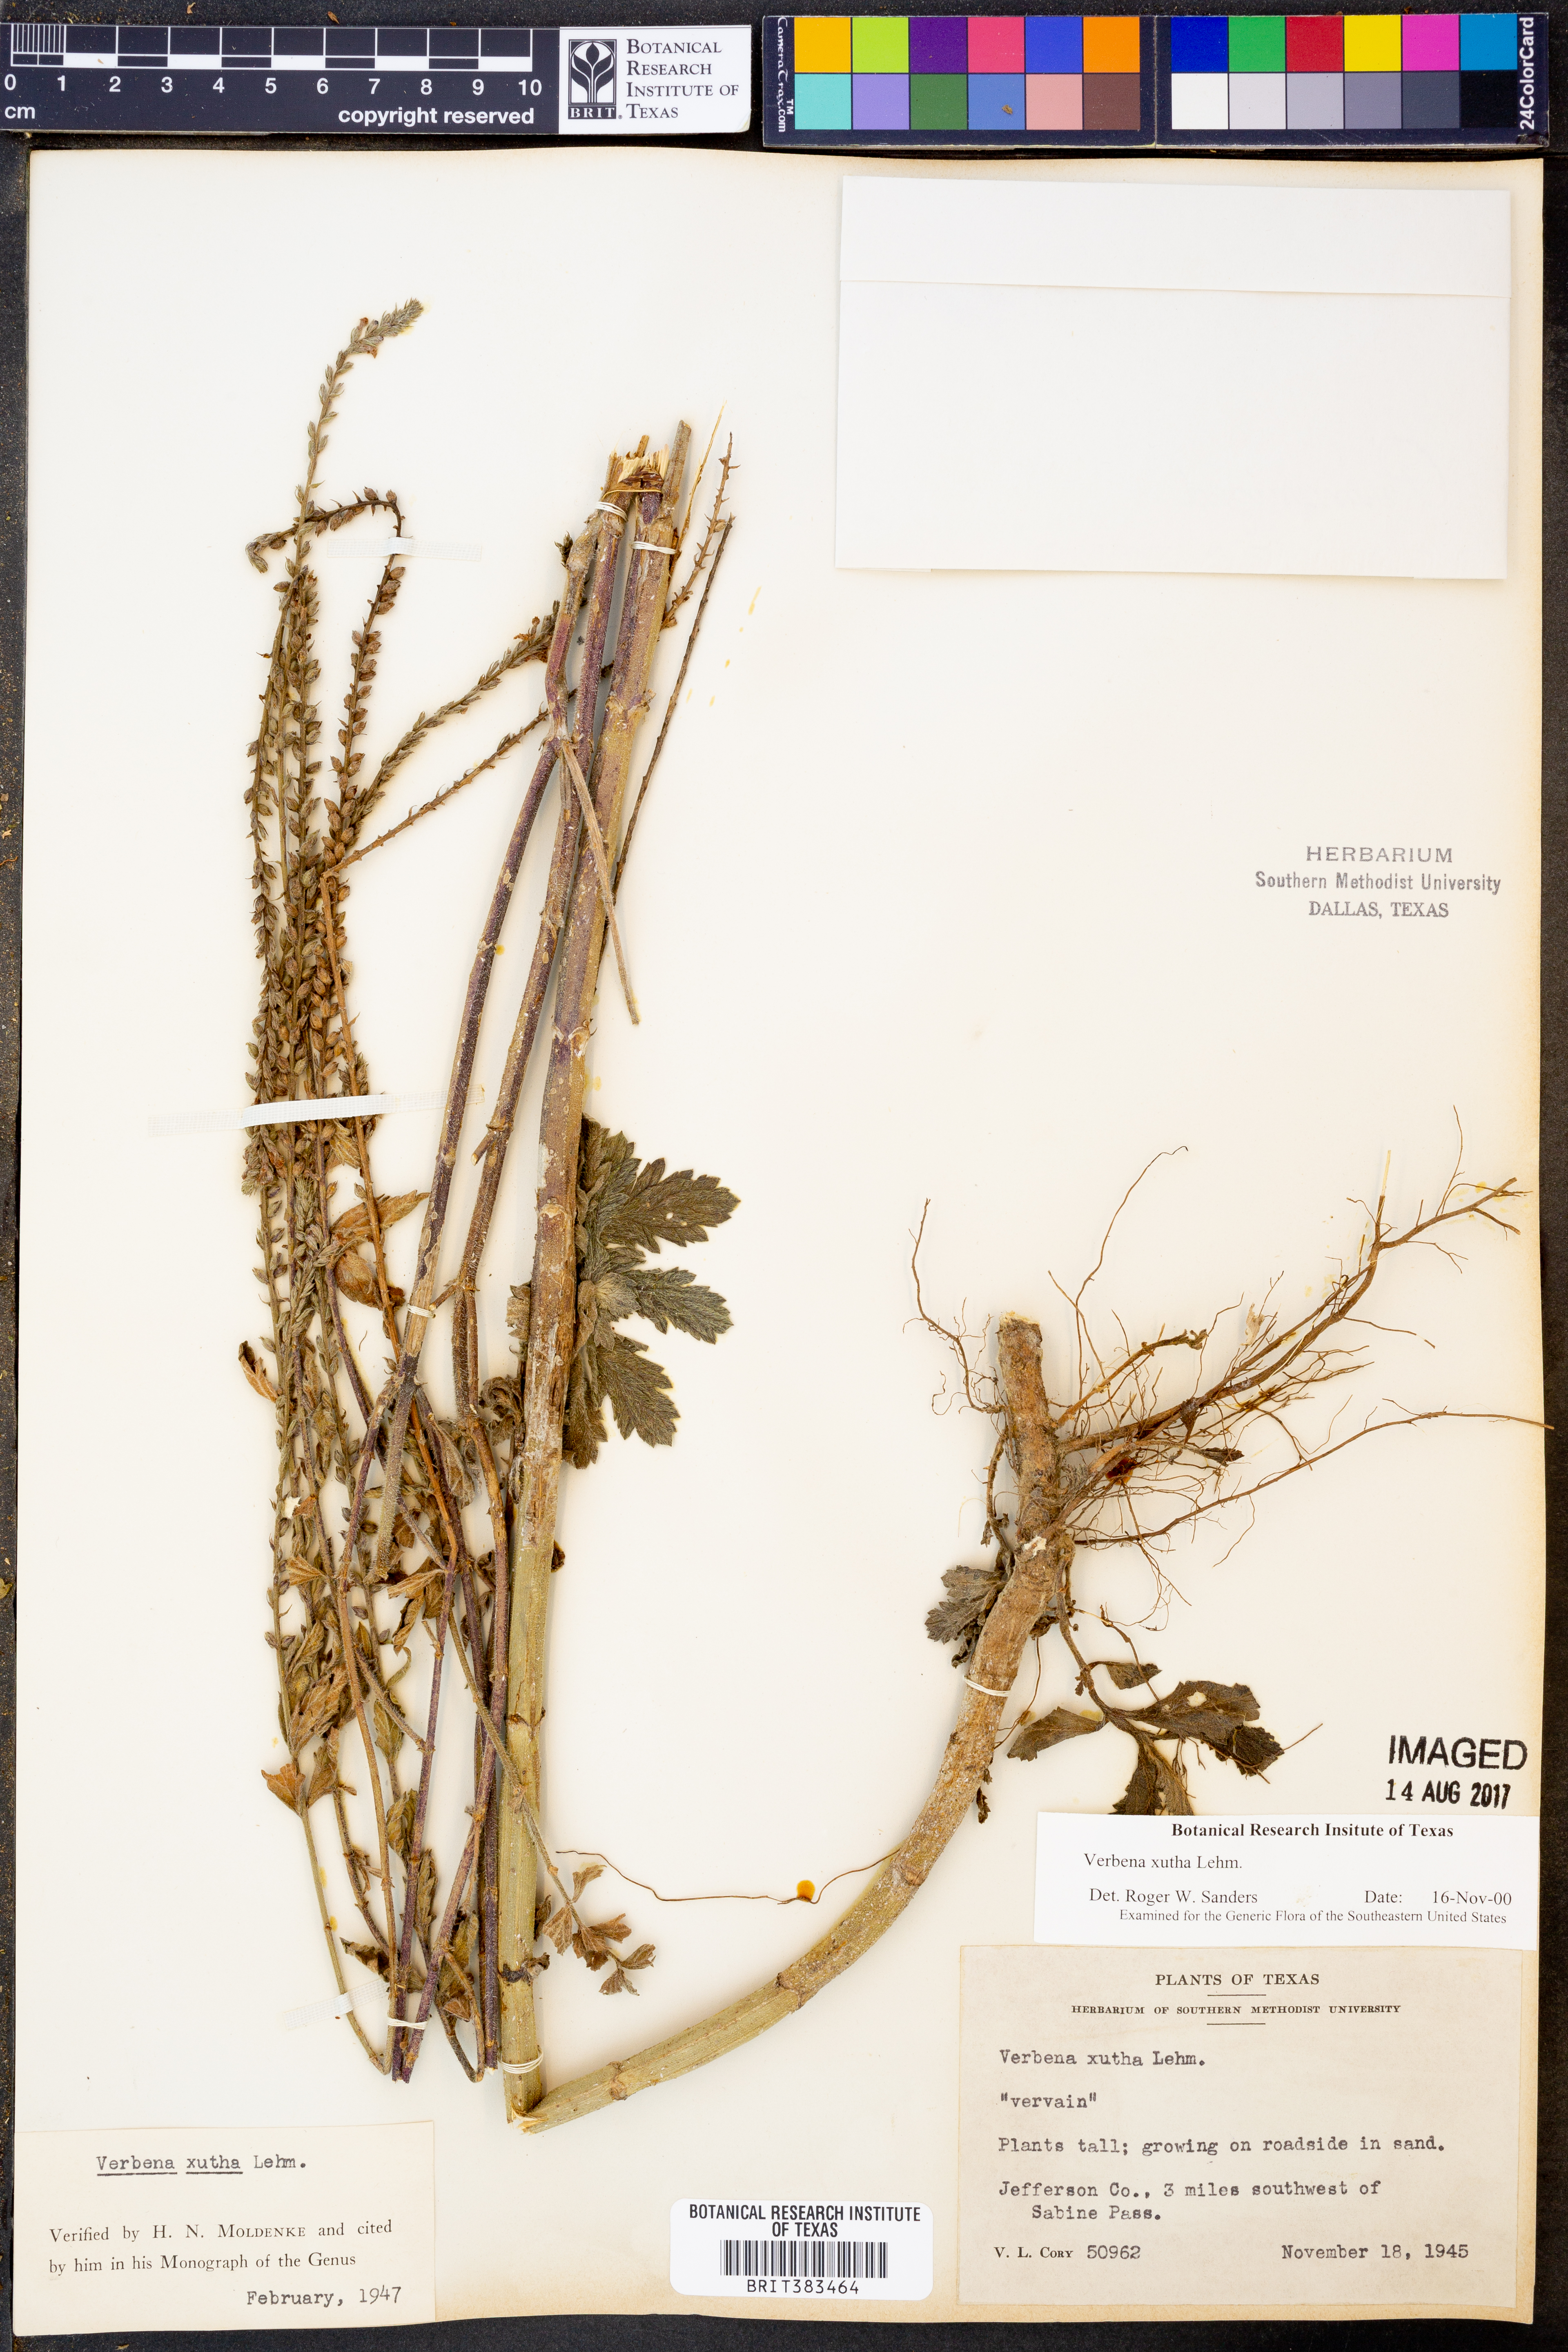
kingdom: Plantae
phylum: Tracheophyta
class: Magnoliopsida
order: Lamiales
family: Verbenaceae
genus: Verbena
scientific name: Verbena xutha
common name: Gulf vervain
